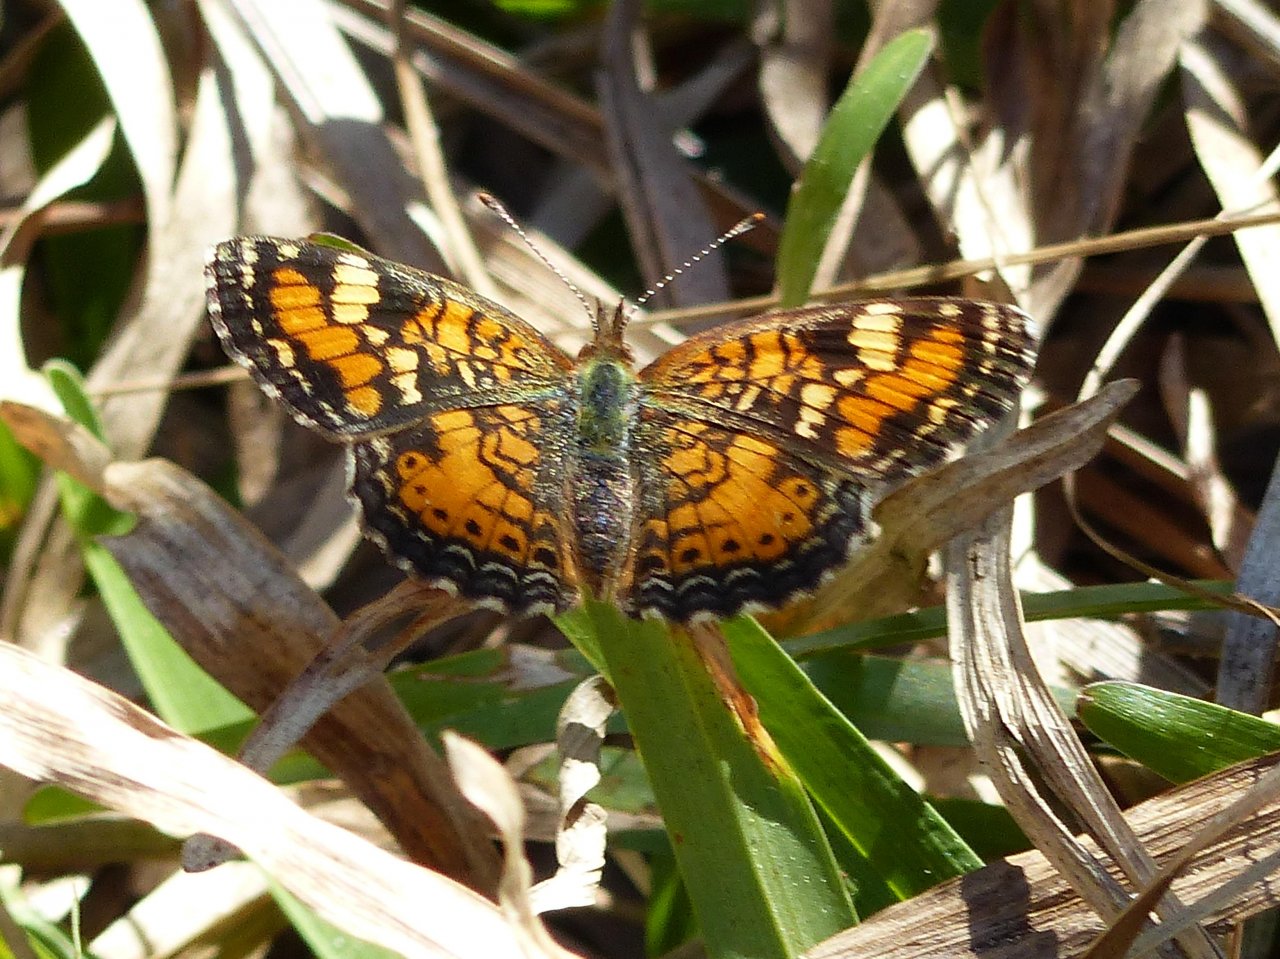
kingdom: Animalia
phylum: Arthropoda
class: Insecta
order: Lepidoptera
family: Nymphalidae
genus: Phyciodes
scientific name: Phyciodes phaon
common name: Phaon Crescent
